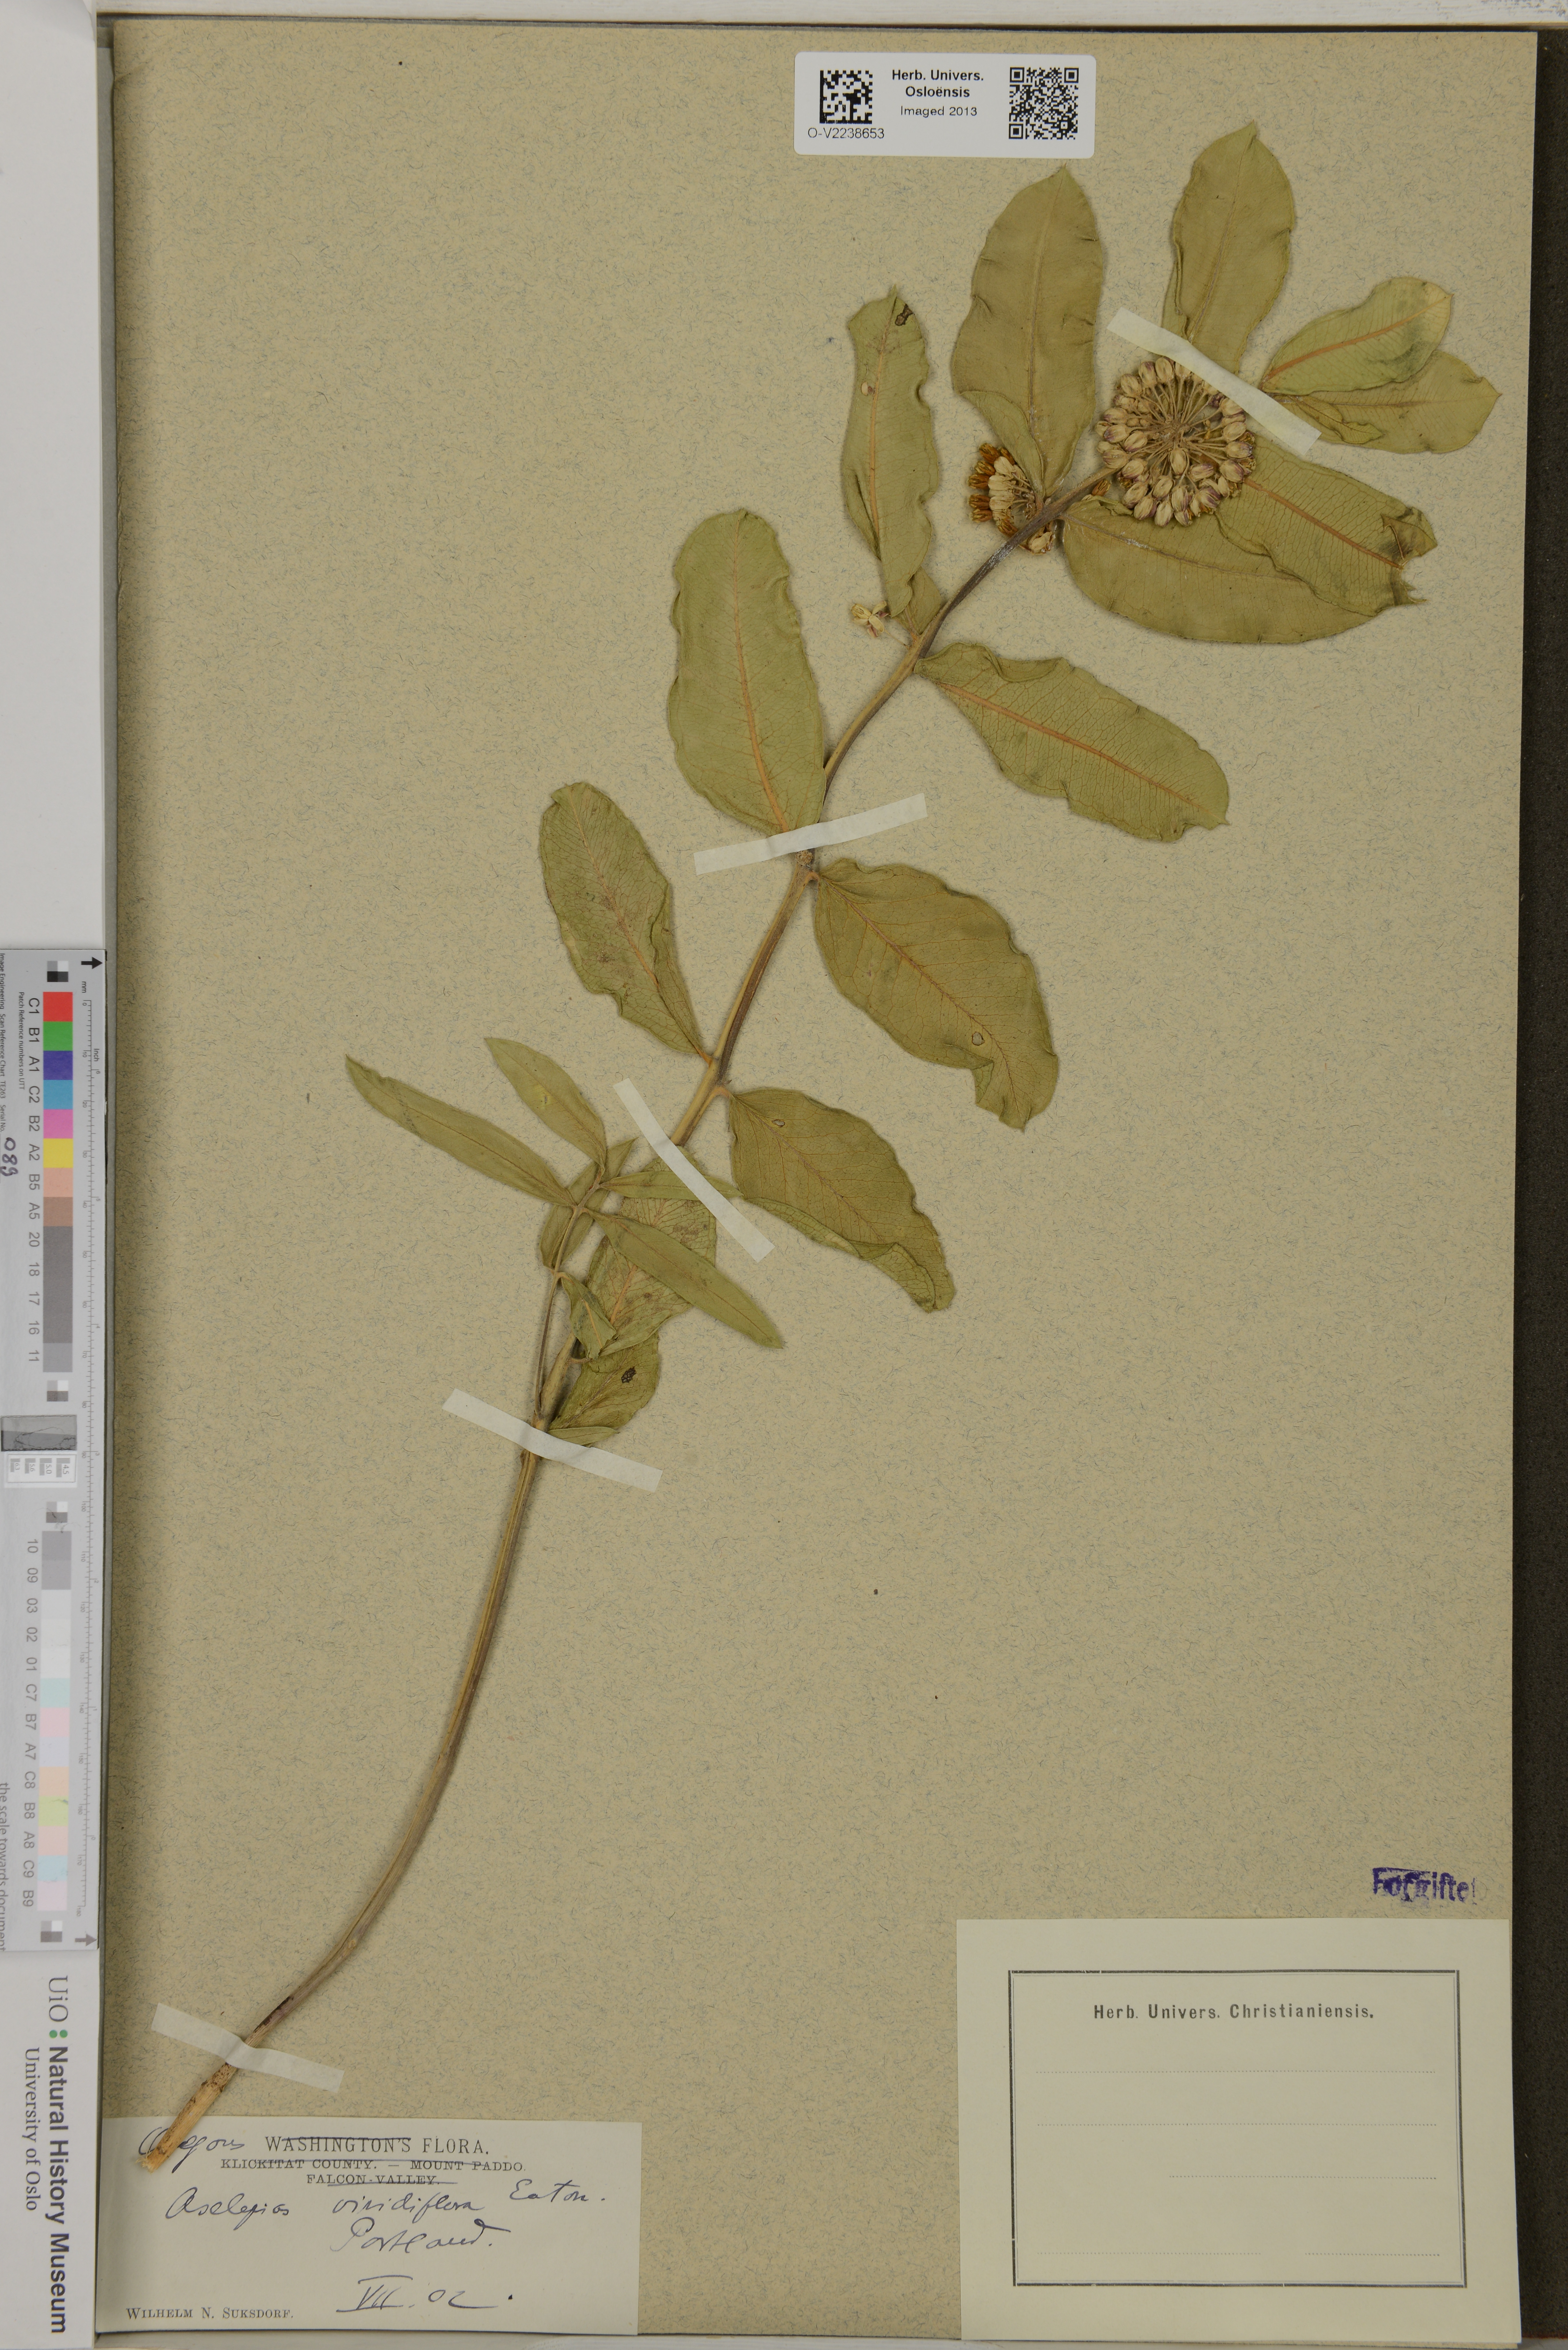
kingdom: Plantae
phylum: Tracheophyta
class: Magnoliopsida
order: Gentianales
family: Apocynaceae
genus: Asclepias
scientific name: Asclepias viridiflora
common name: Green comet milkweed
